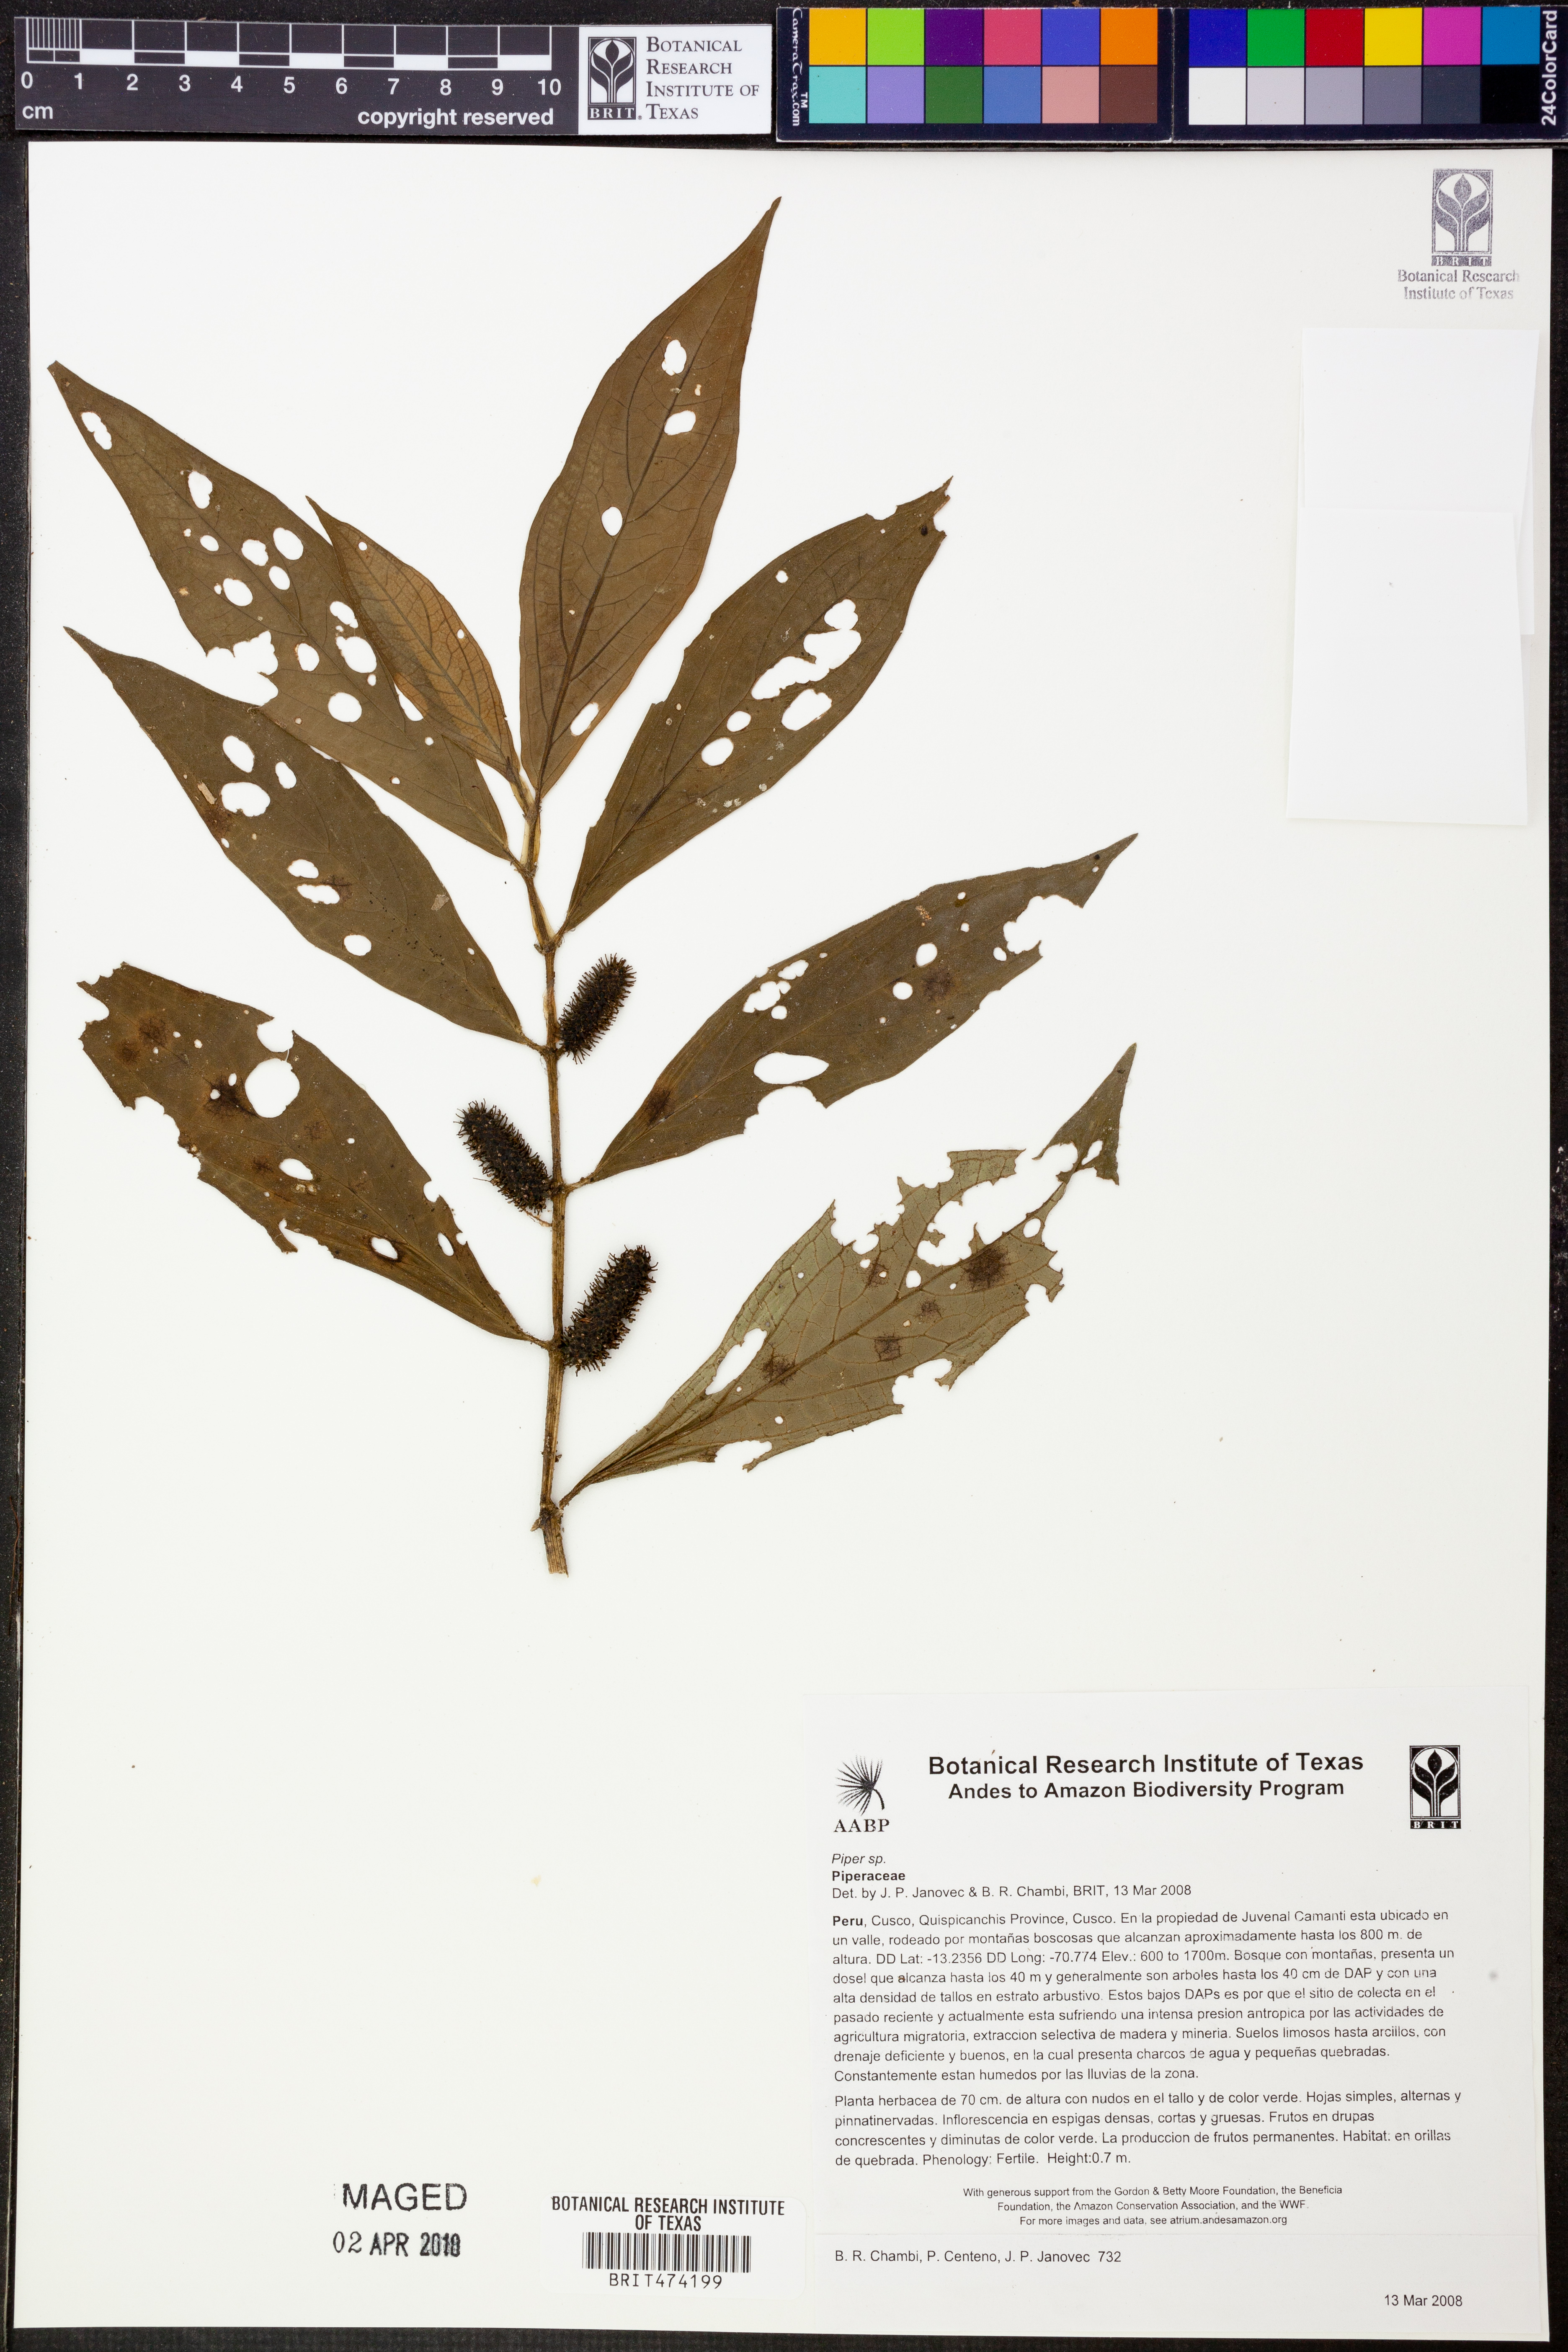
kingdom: Plantae
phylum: Tracheophyta
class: Magnoliopsida
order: Piperales
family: Piperaceae
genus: Piper
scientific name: Piper longestylosum
